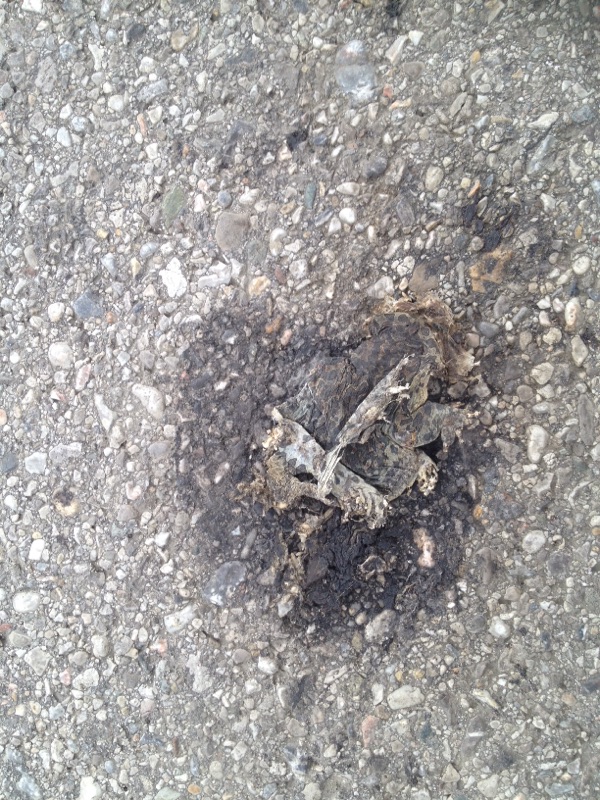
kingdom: Animalia
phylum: Chordata
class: Amphibia
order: Anura
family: Bufonidae
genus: Bufotes
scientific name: Bufotes viridis
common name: European green toad
